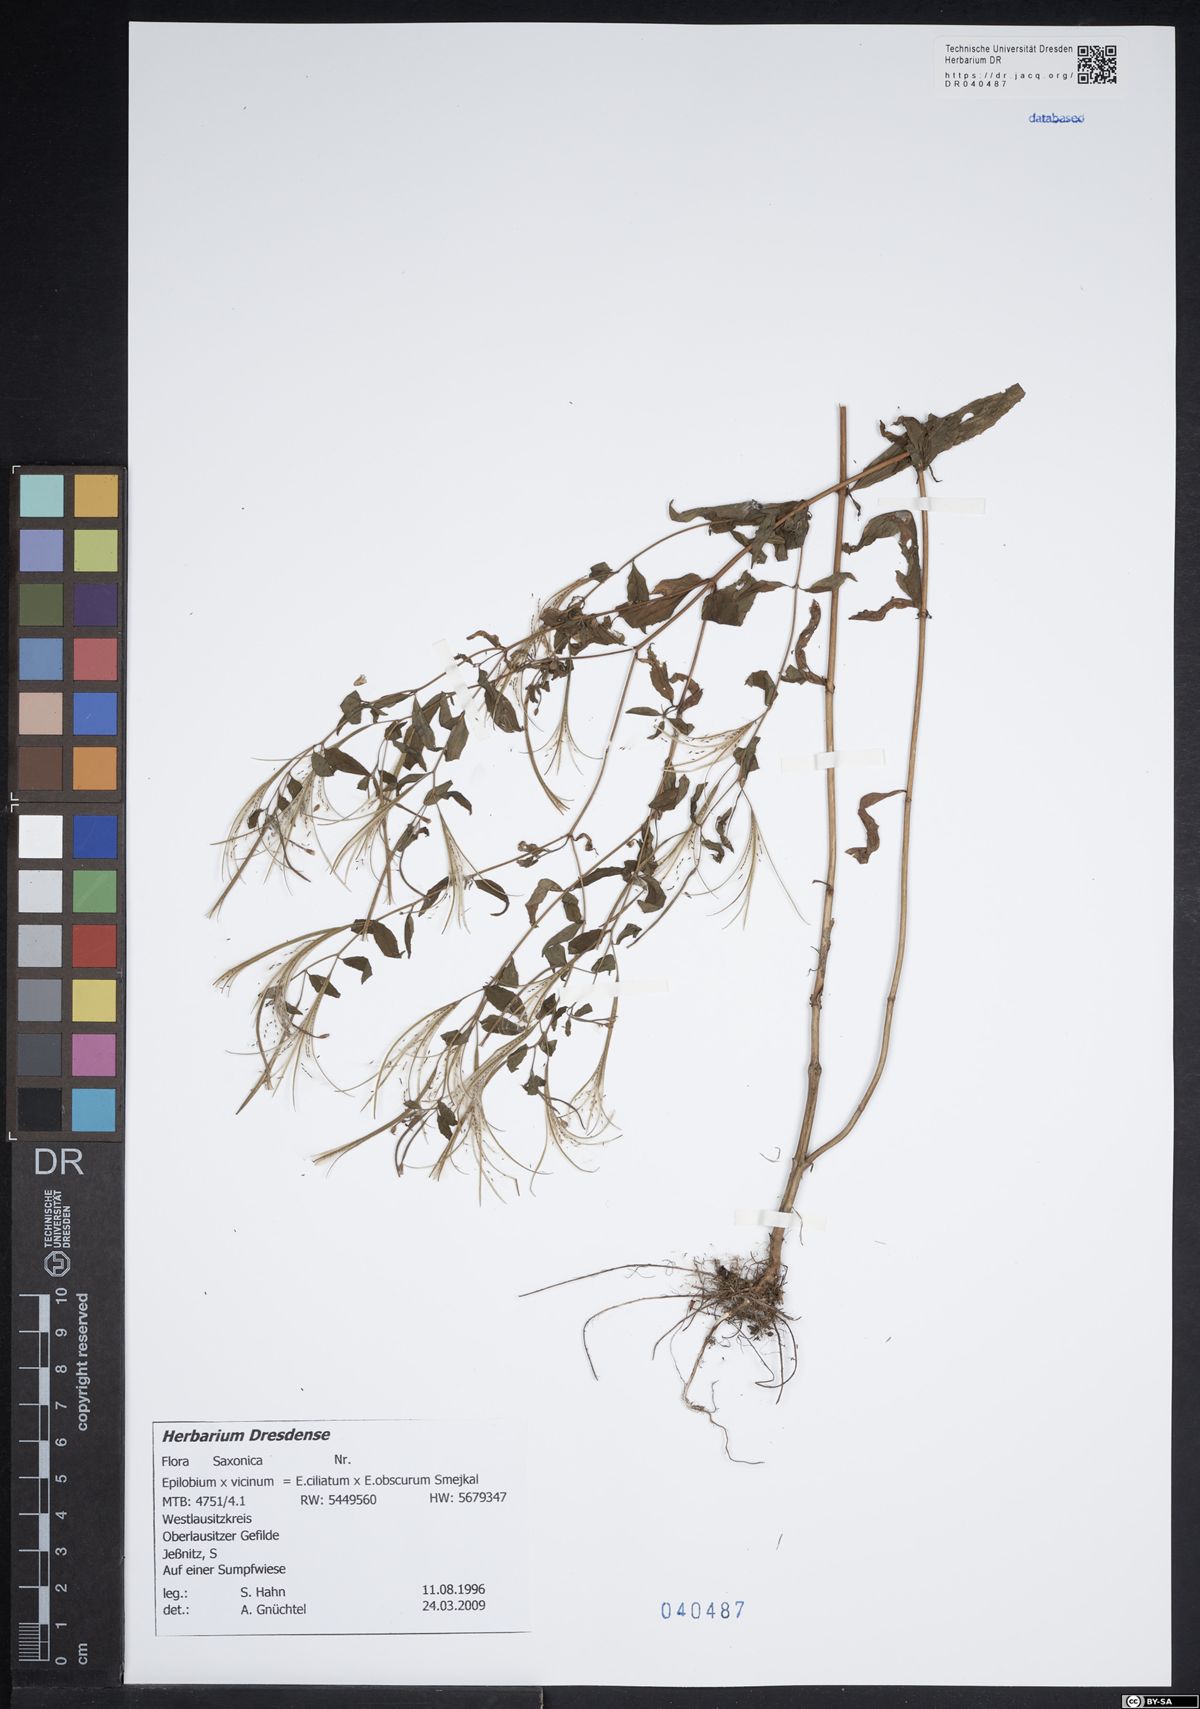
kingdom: Plantae
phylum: Tracheophyta
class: Magnoliopsida
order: Myrtales
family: Onagraceae
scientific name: Onagraceae
